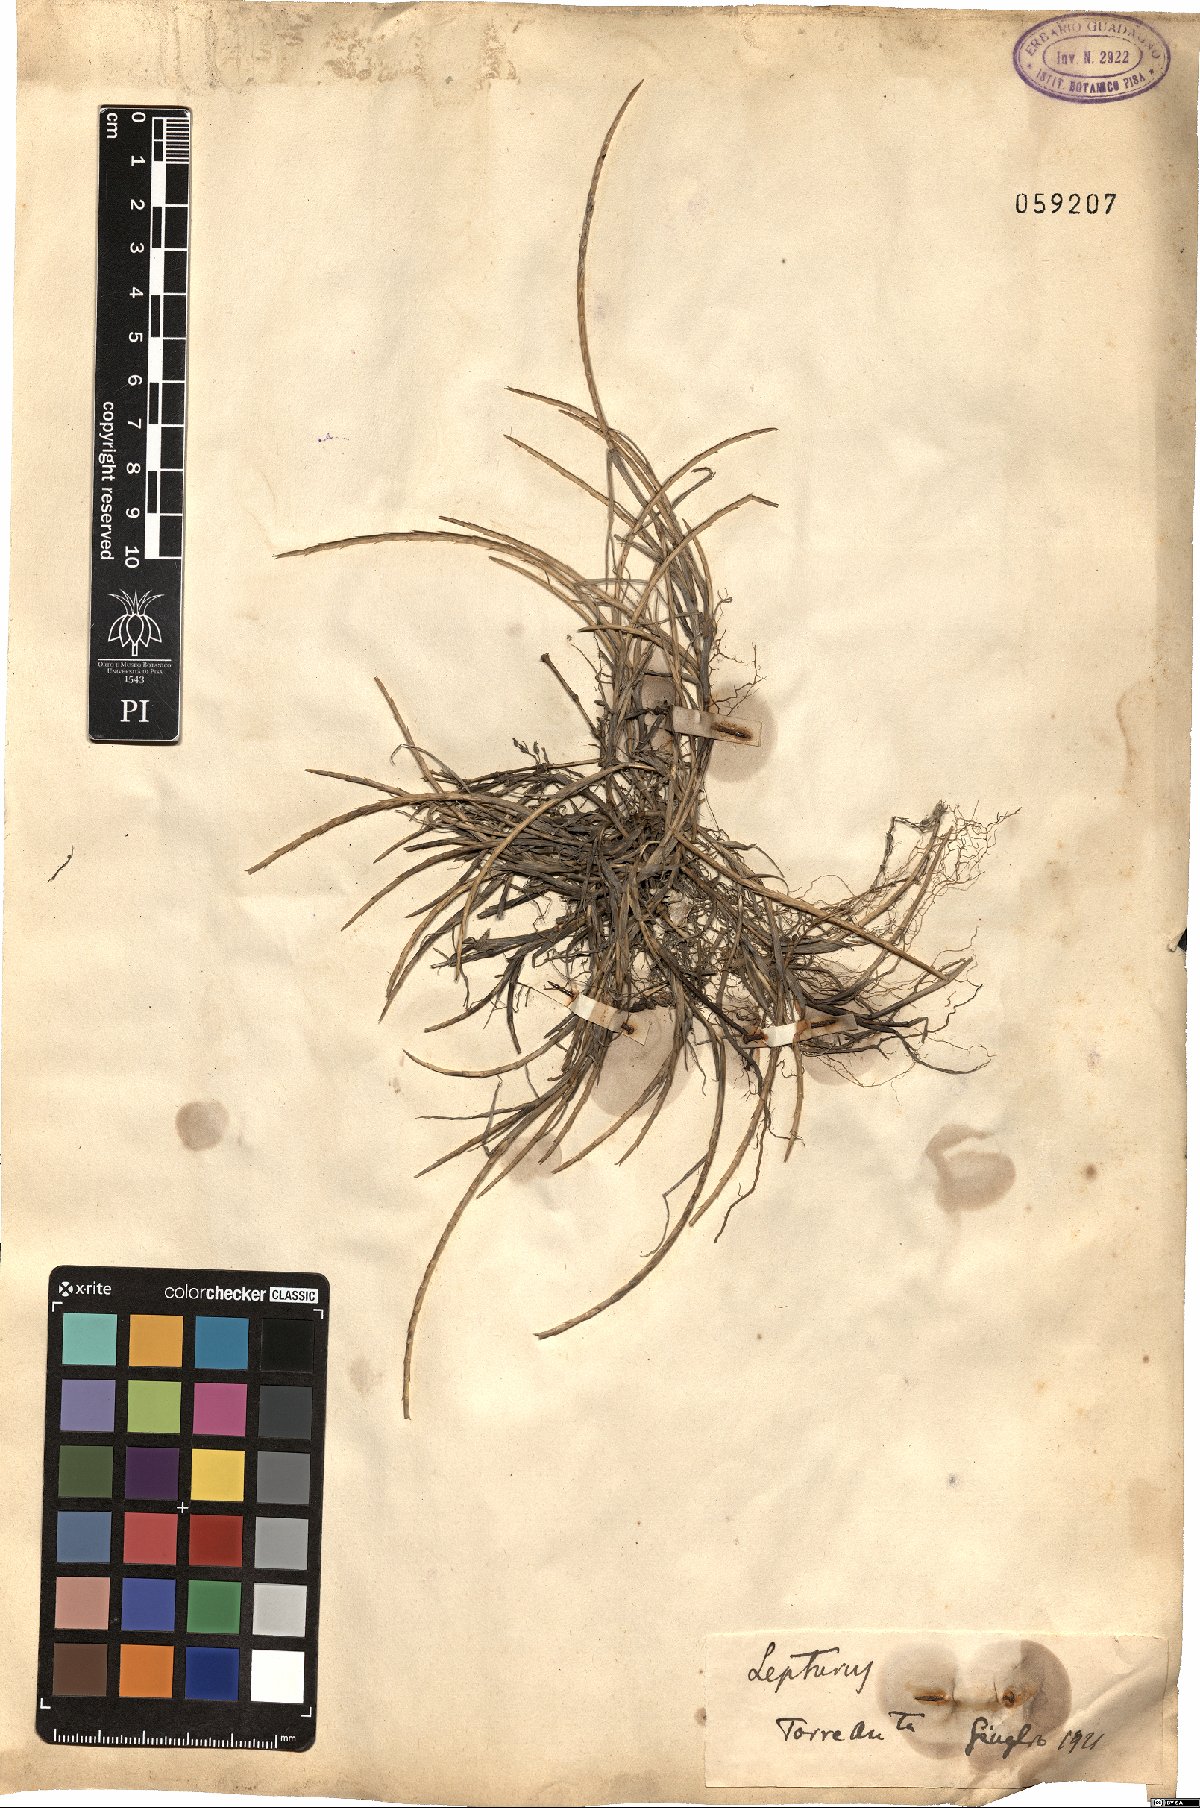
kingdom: Plantae
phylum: Tracheophyta
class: Magnoliopsida
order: Fabales
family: Fabaceae
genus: Spartium
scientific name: Spartium
